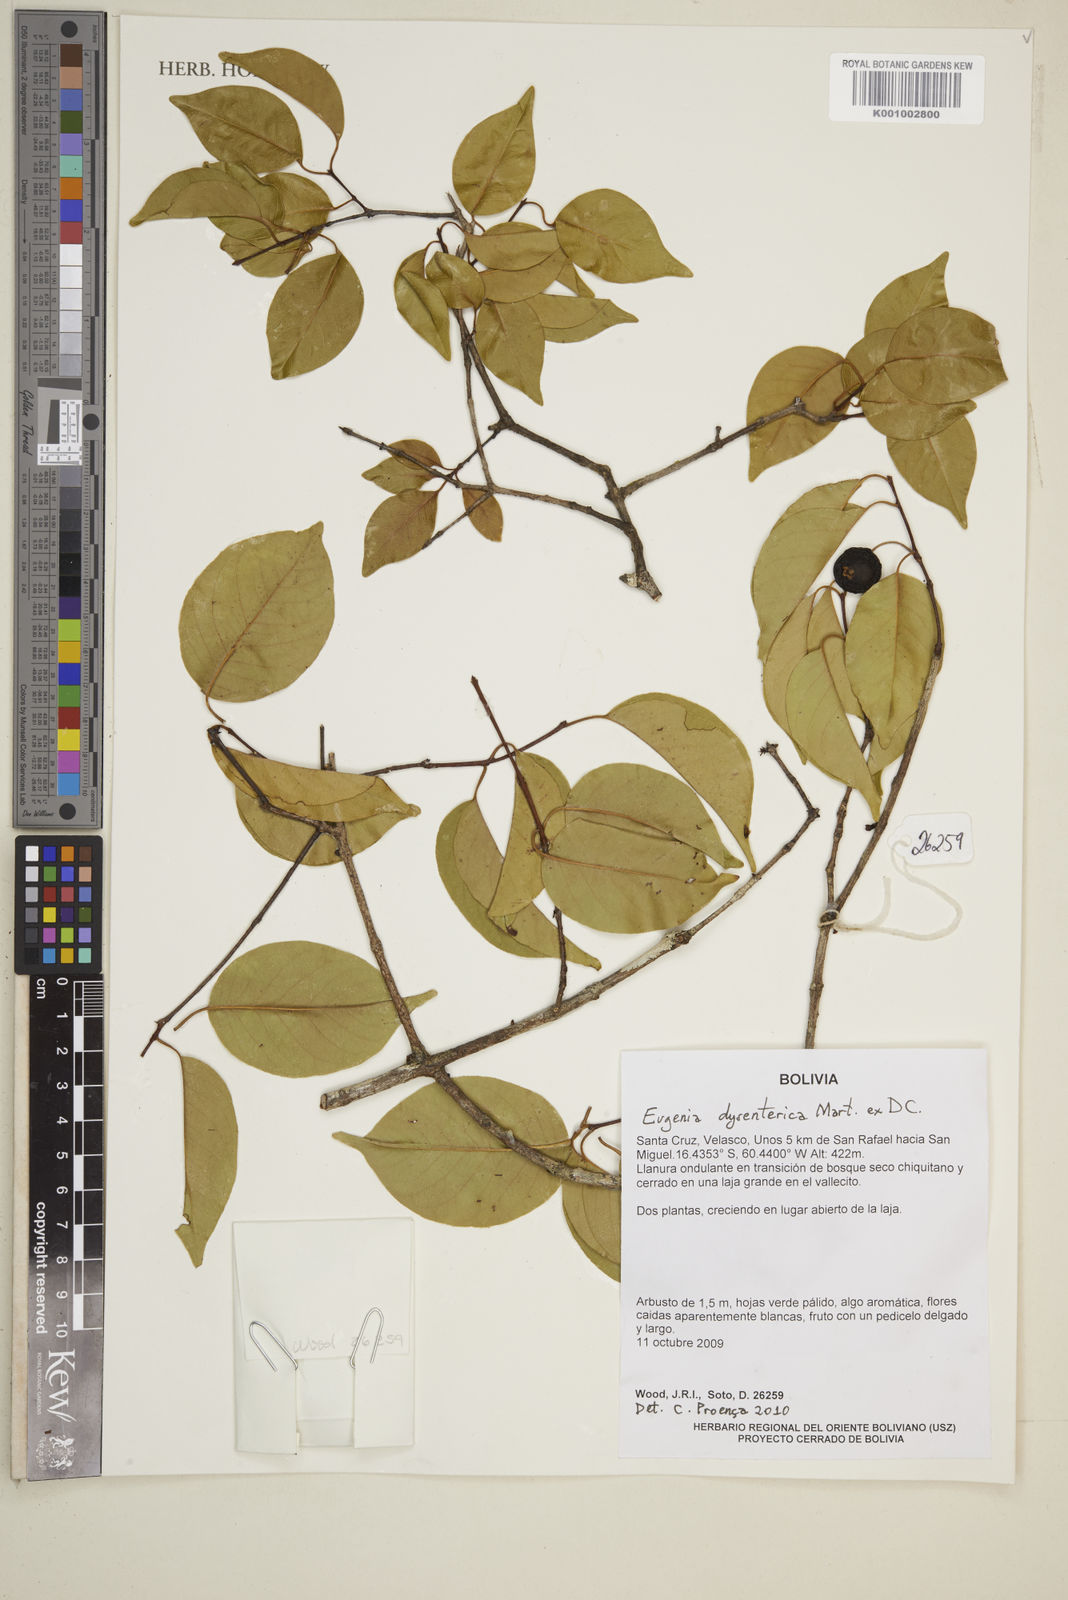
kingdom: Plantae
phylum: Tracheophyta
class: Magnoliopsida
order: Myrtales
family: Myrtaceae
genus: Eugenia
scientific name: Eugenia dysenterica
